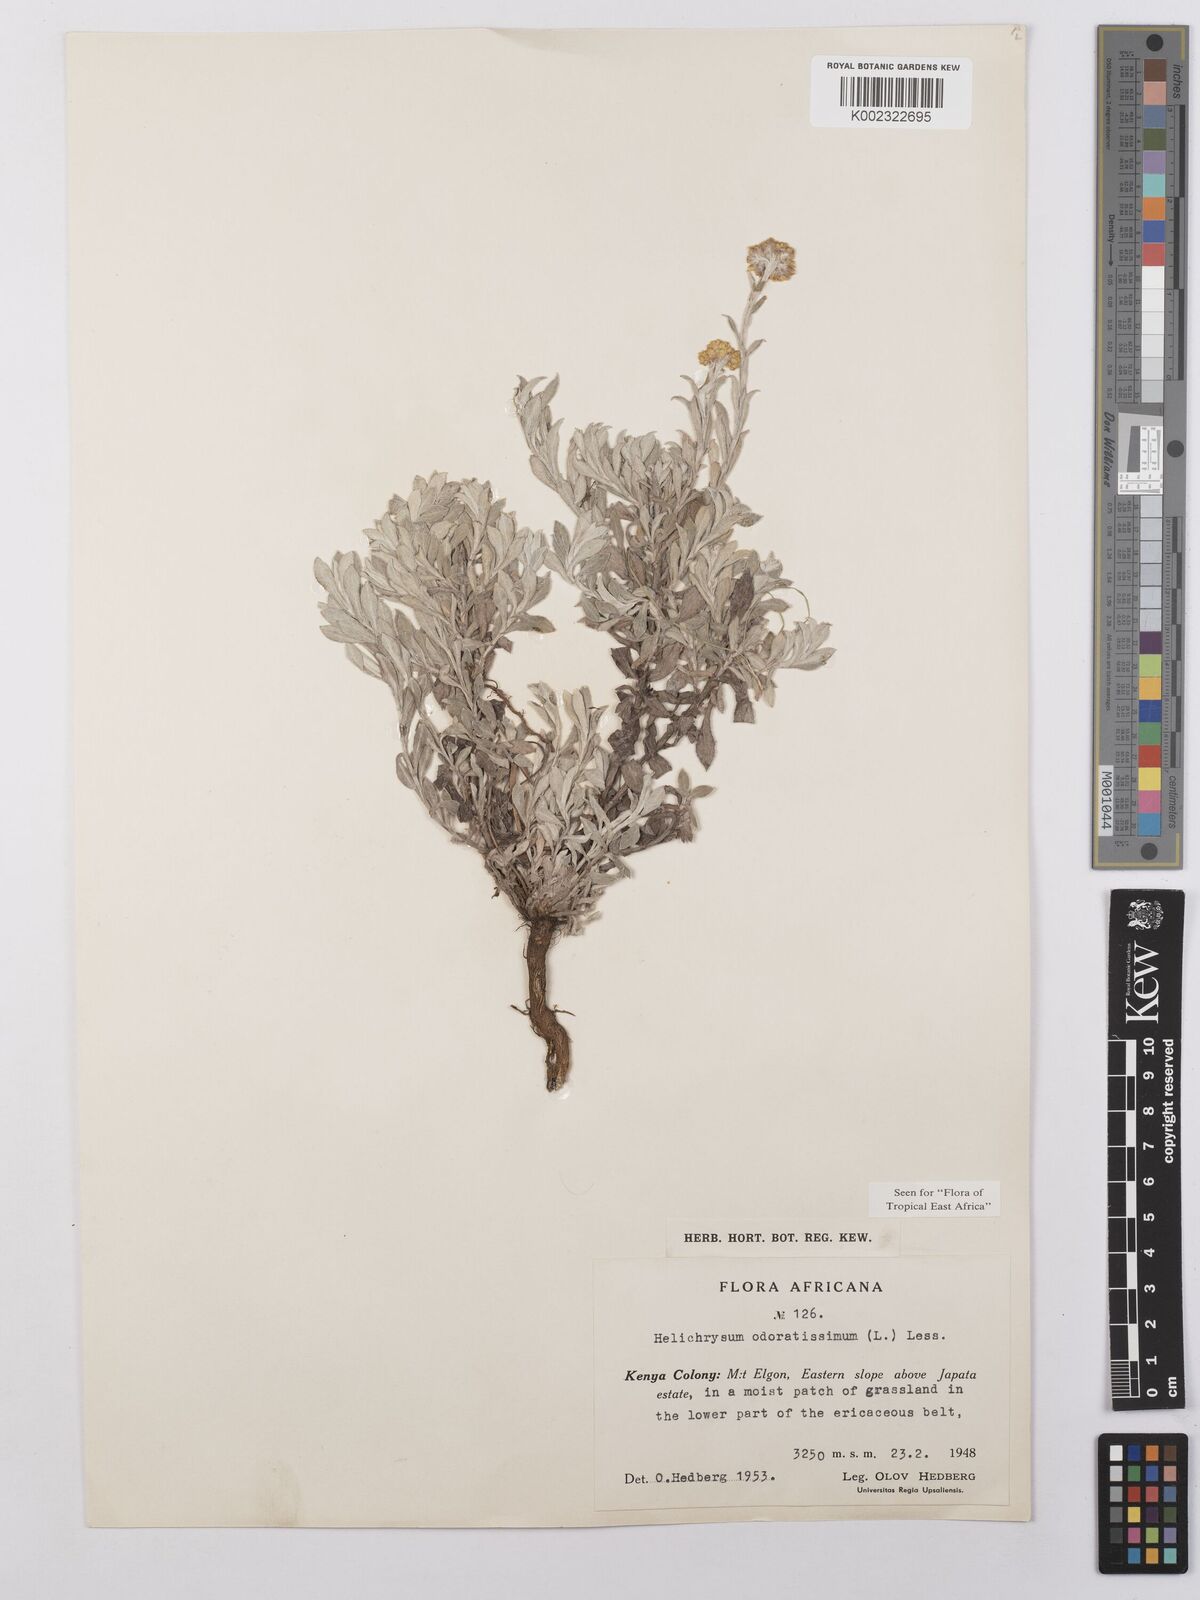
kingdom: Plantae
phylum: Tracheophyta
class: Magnoliopsida
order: Asterales
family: Asteraceae
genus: Helichrysum
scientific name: Helichrysum odoratissimum
